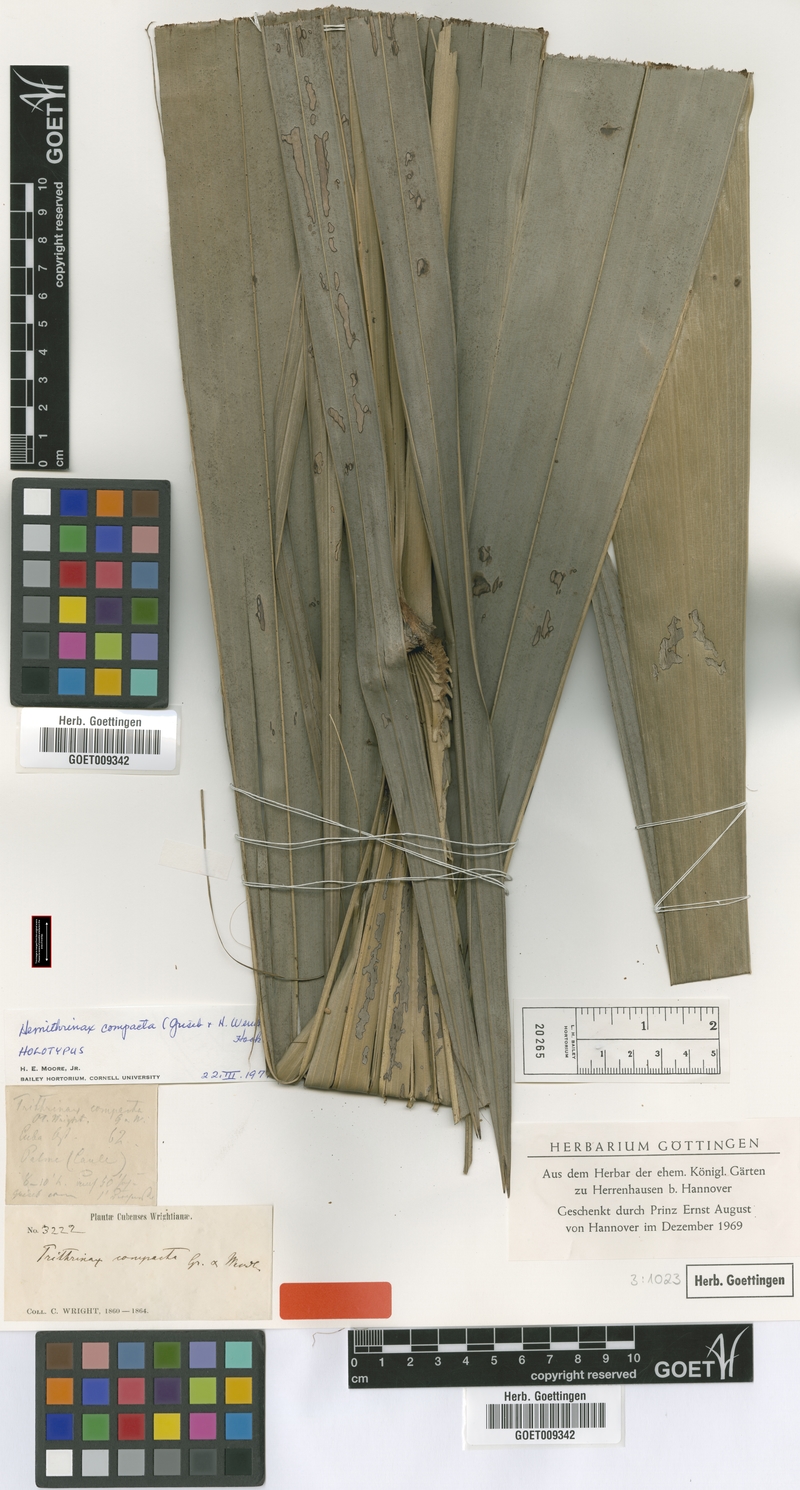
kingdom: Plantae
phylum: Tracheophyta
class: Liliopsida
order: Arecales
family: Arecaceae
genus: Hemithrinax
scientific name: Hemithrinax compacta
